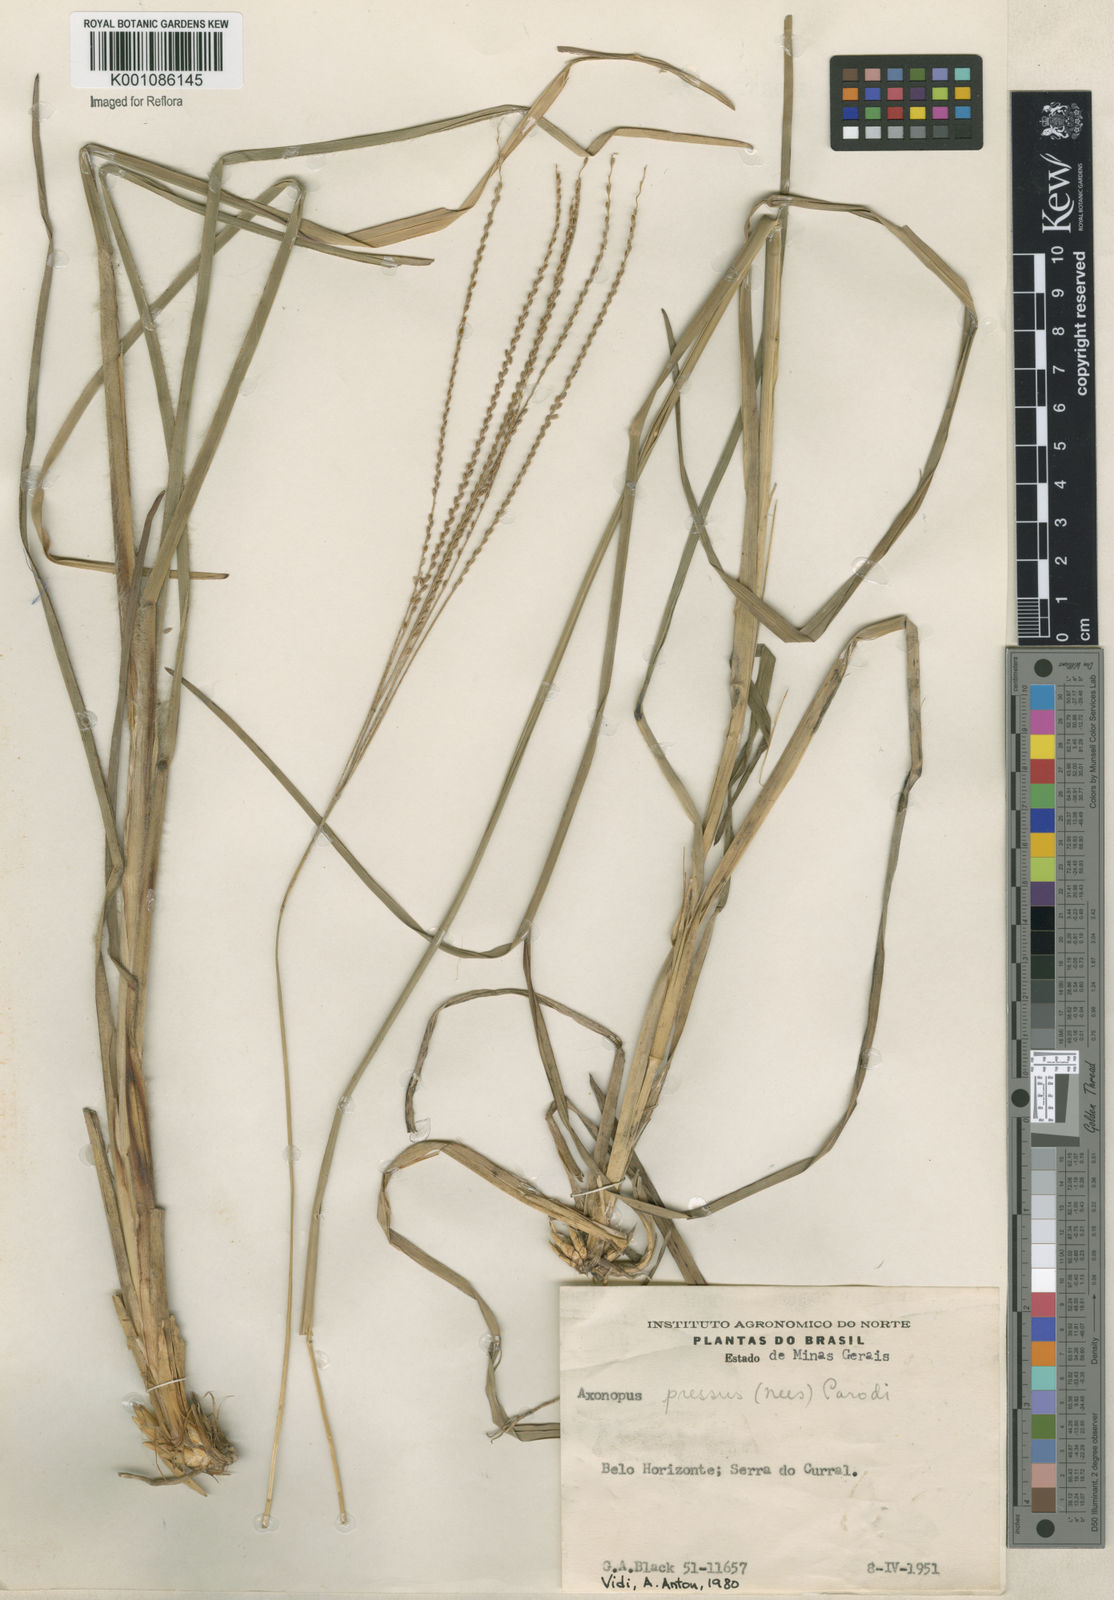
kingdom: Plantae
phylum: Tracheophyta
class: Liliopsida
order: Poales
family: Poaceae
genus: Axonopus
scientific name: Axonopus pressus
